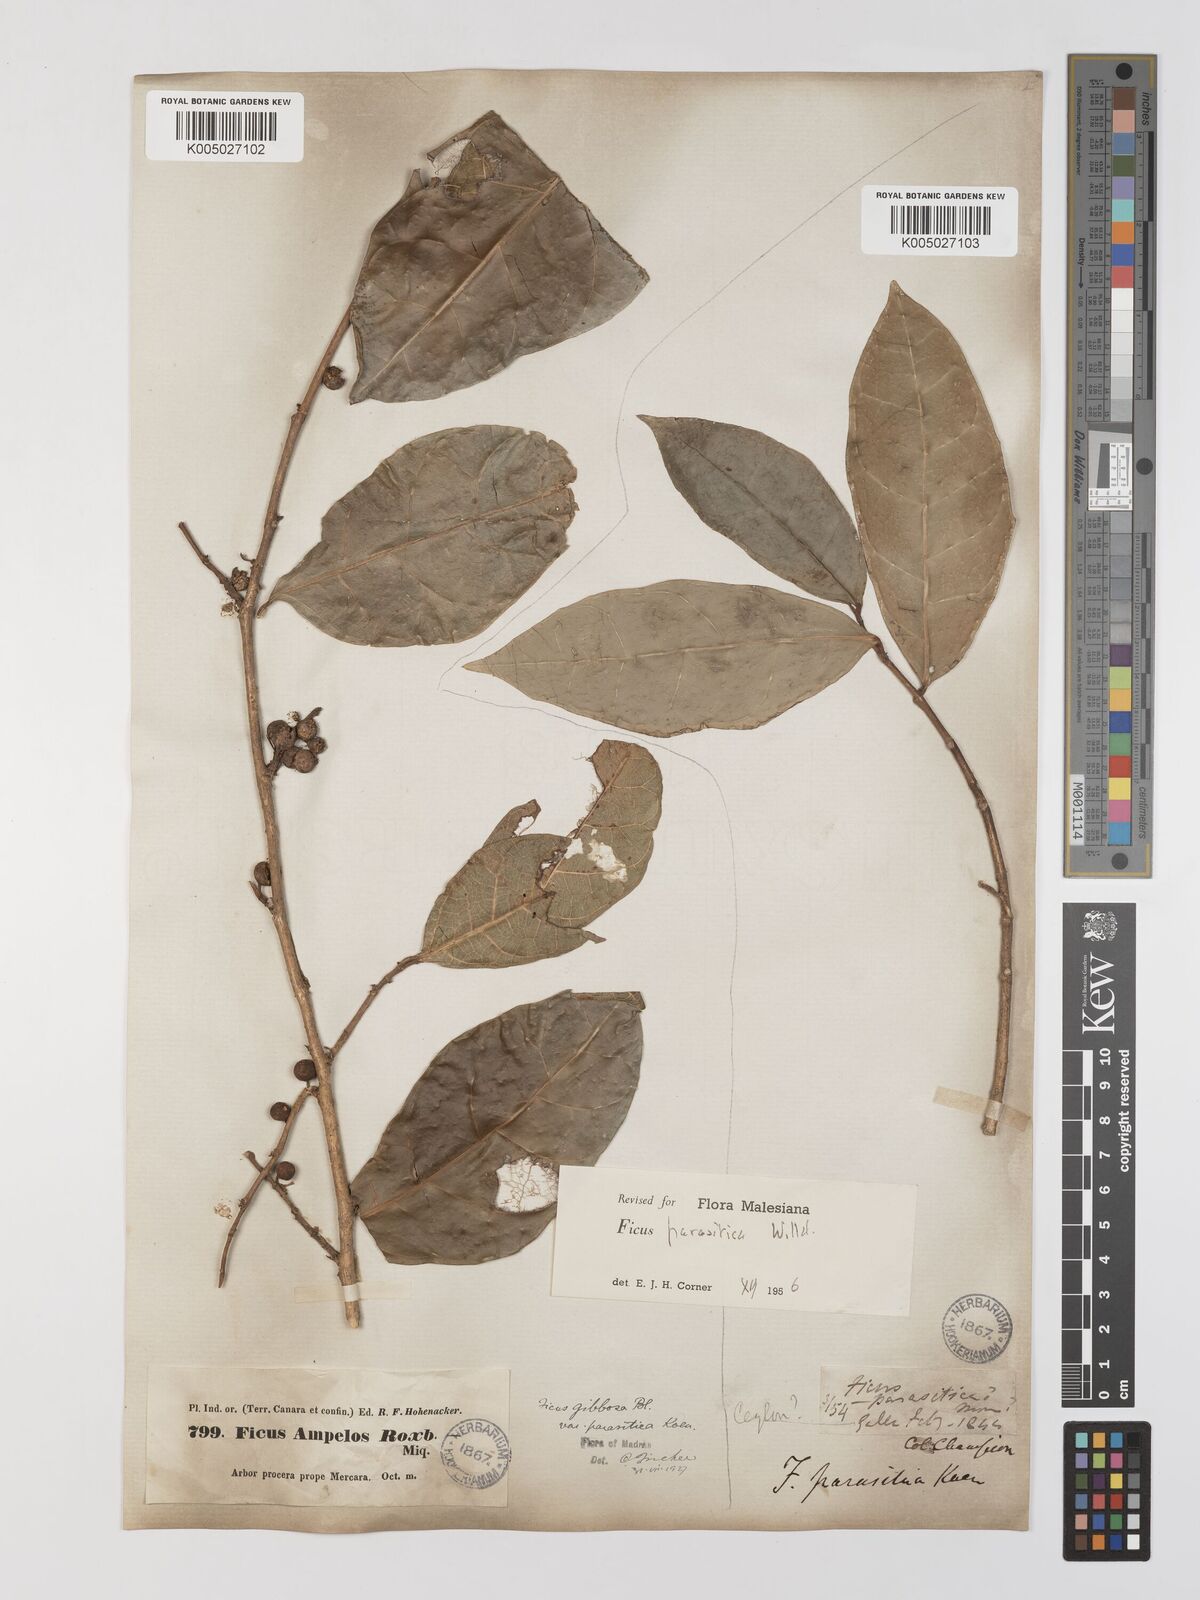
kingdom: Plantae
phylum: Tracheophyta
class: Magnoliopsida
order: Rosales
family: Moraceae
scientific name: Moraceae
